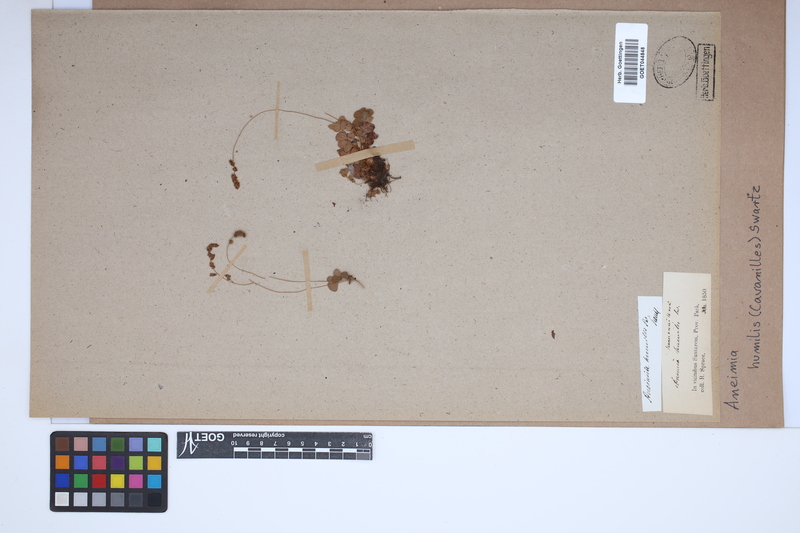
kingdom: Plantae
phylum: Tracheophyta
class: Polypodiopsida
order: Schizaeales
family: Anemiaceae
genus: Anemia
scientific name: Anemia humilis
